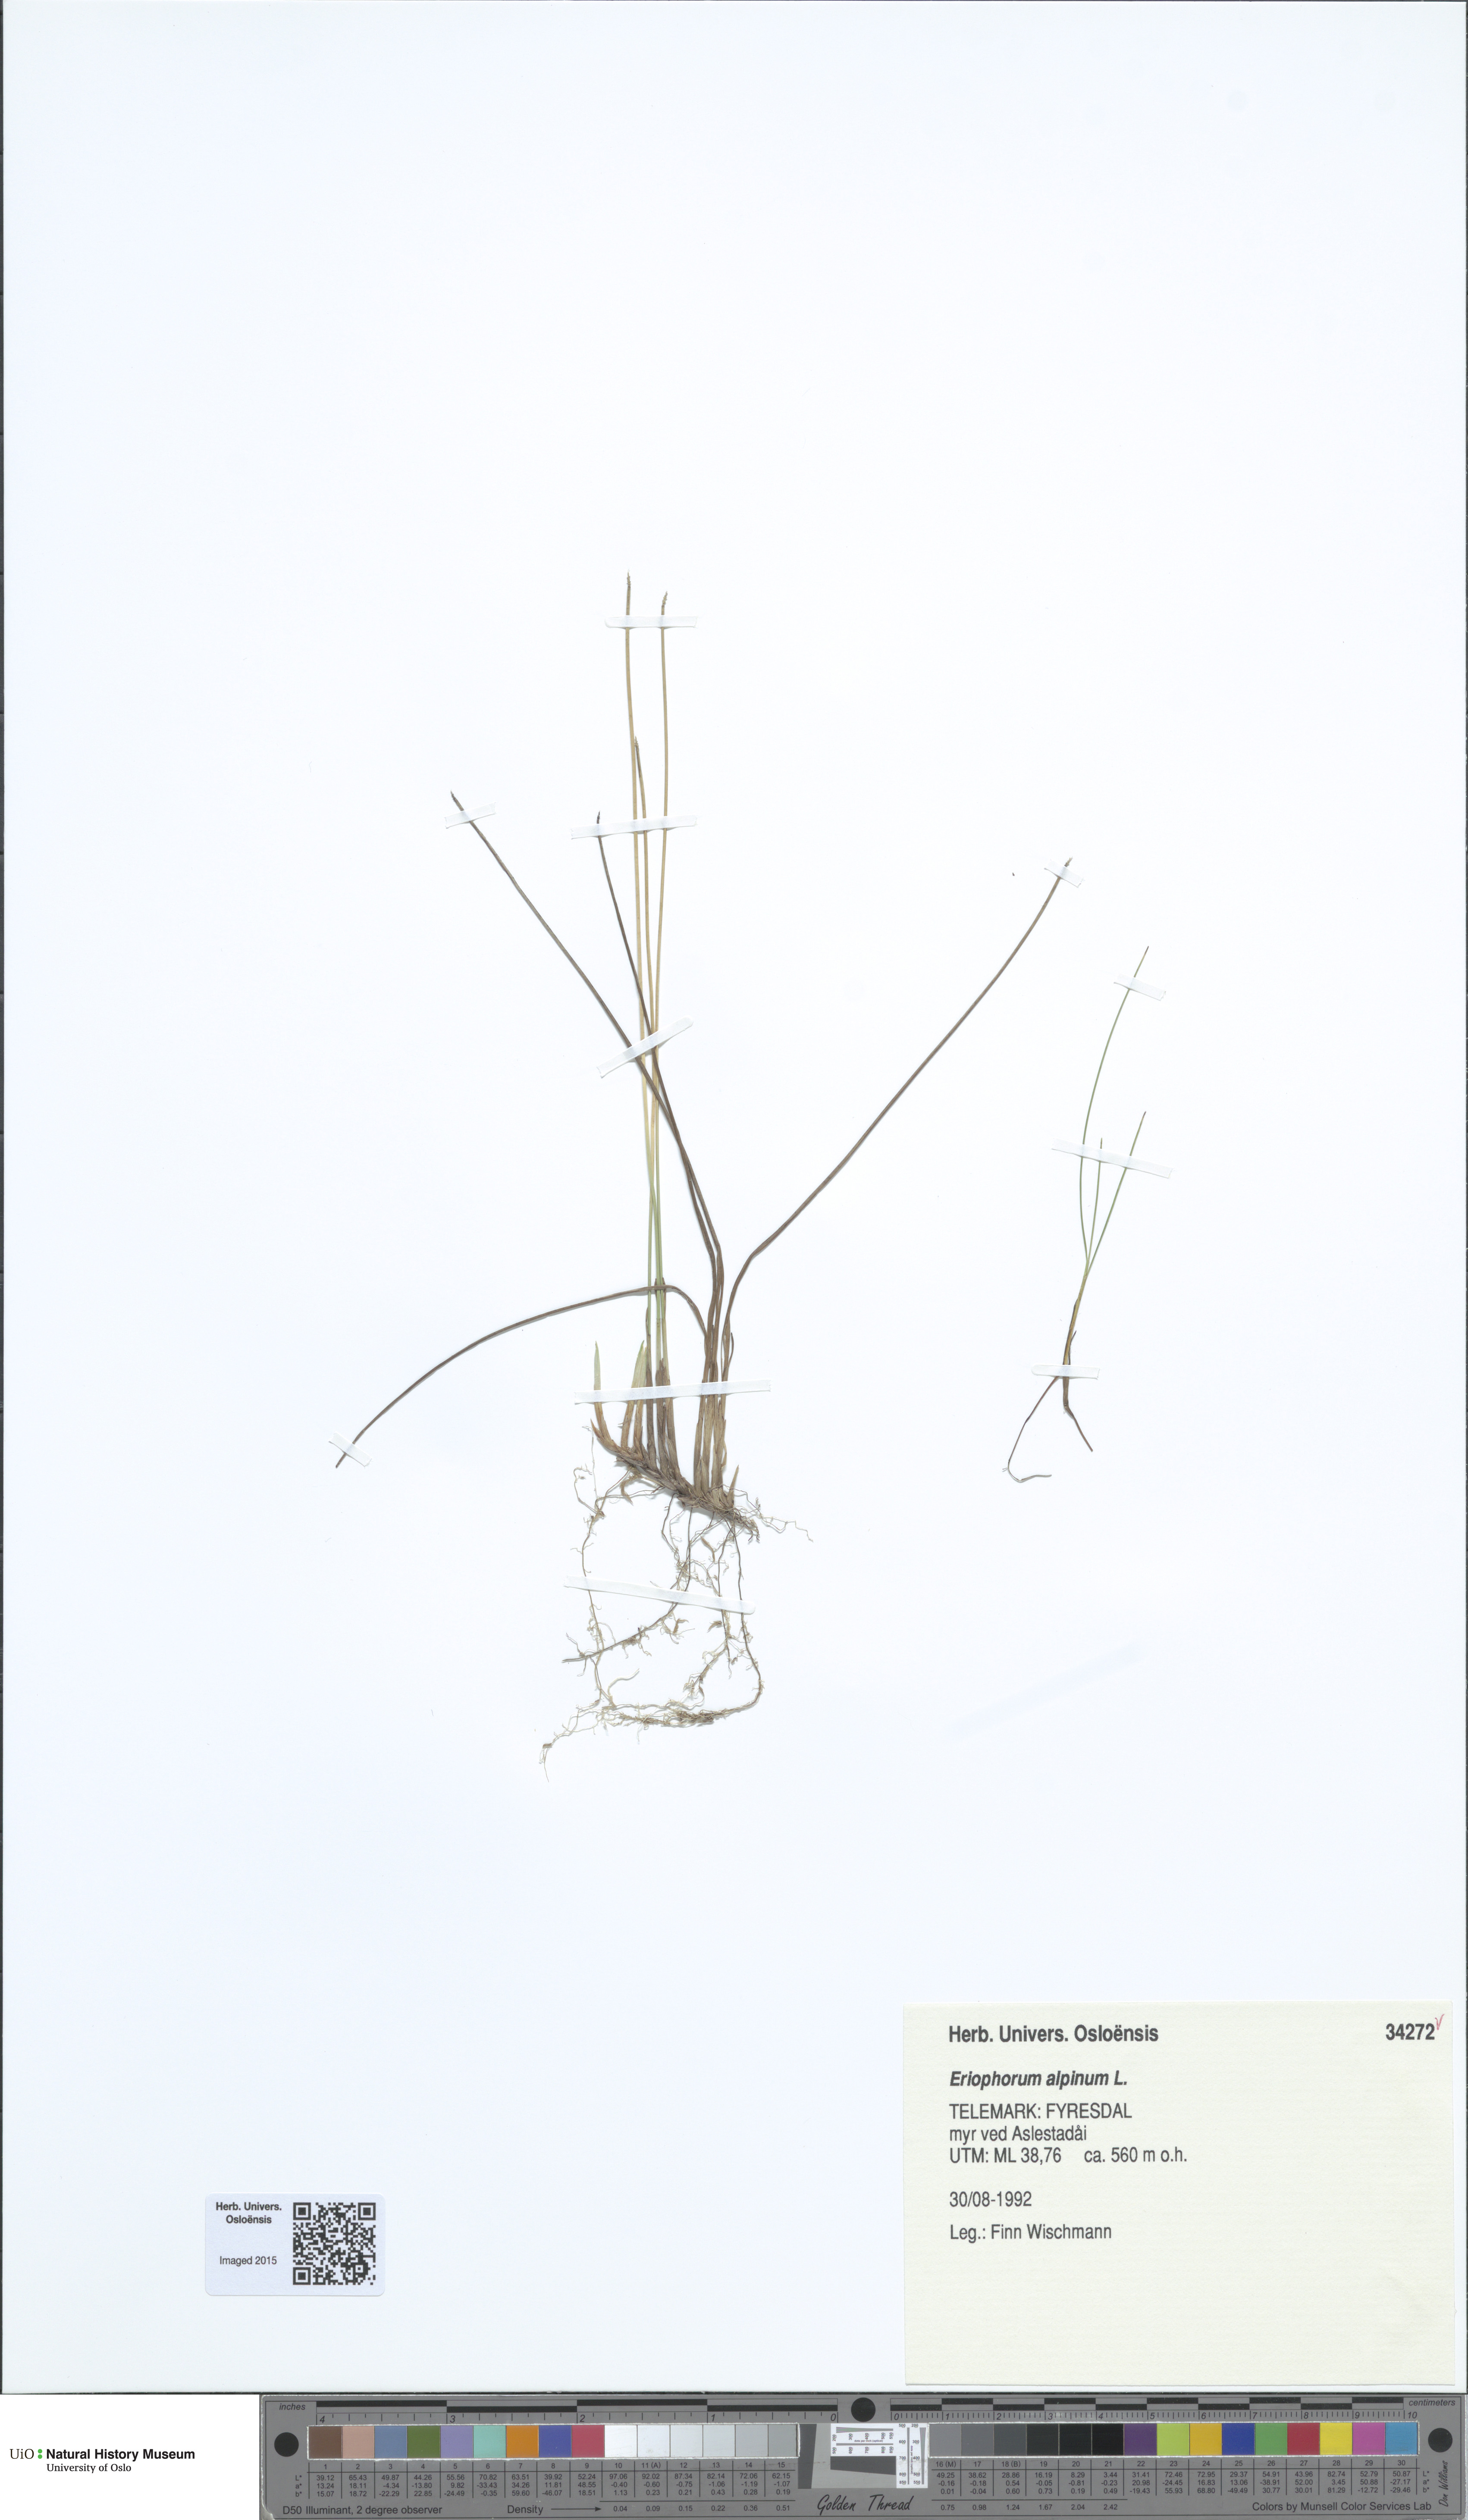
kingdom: Plantae
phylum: Tracheophyta
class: Liliopsida
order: Poales
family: Cyperaceae
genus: Trichophorum
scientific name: Trichophorum alpinum
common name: Alpine bulrush
